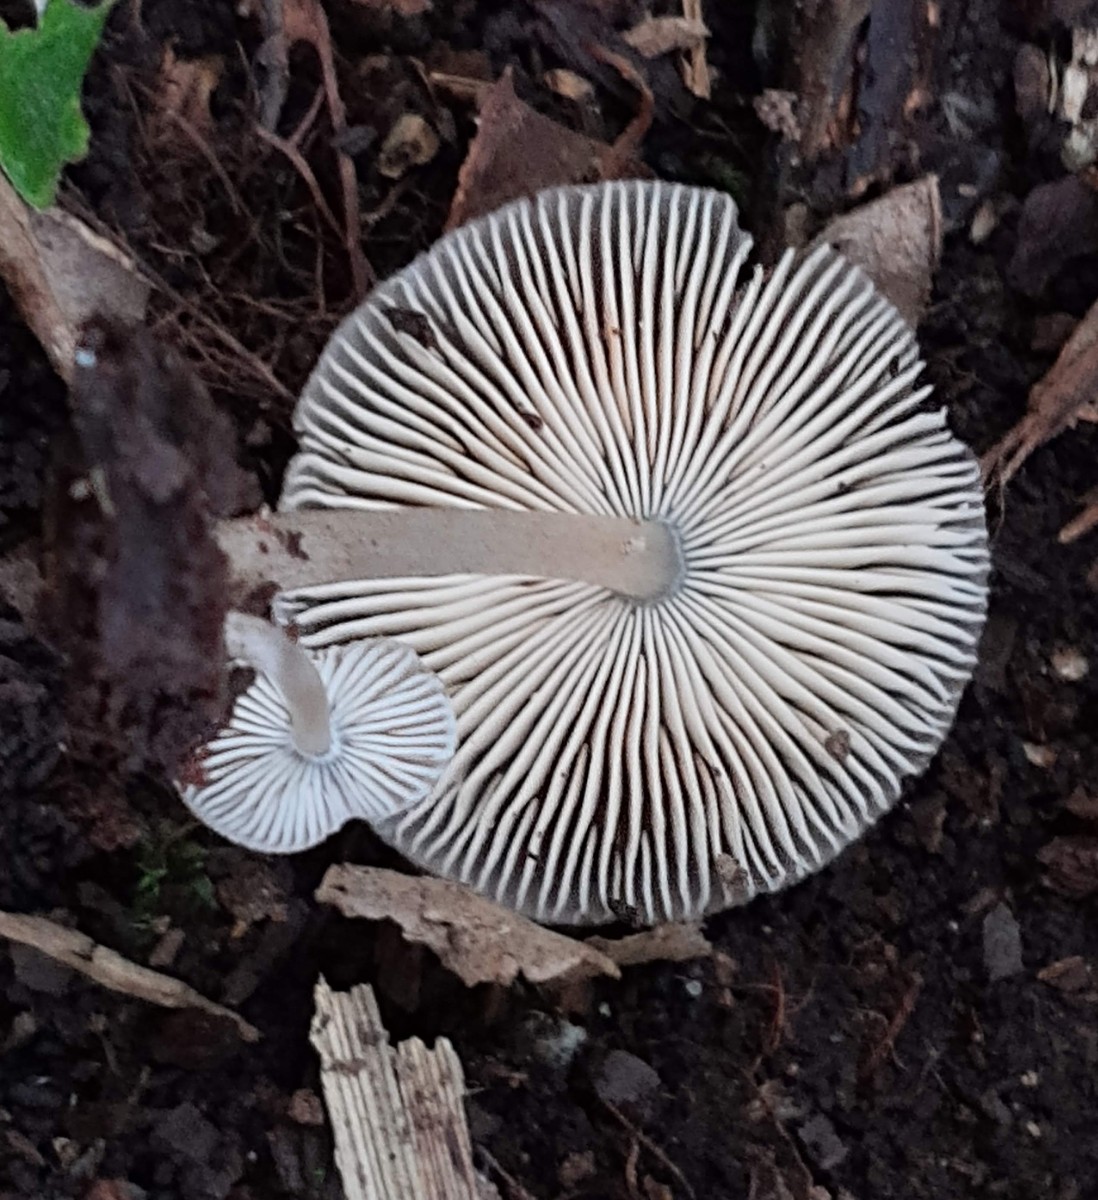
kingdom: Fungi
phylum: Basidiomycota
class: Agaricomycetes
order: Agaricales
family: Pluteaceae
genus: Pluteus
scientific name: Pluteus podospileus
